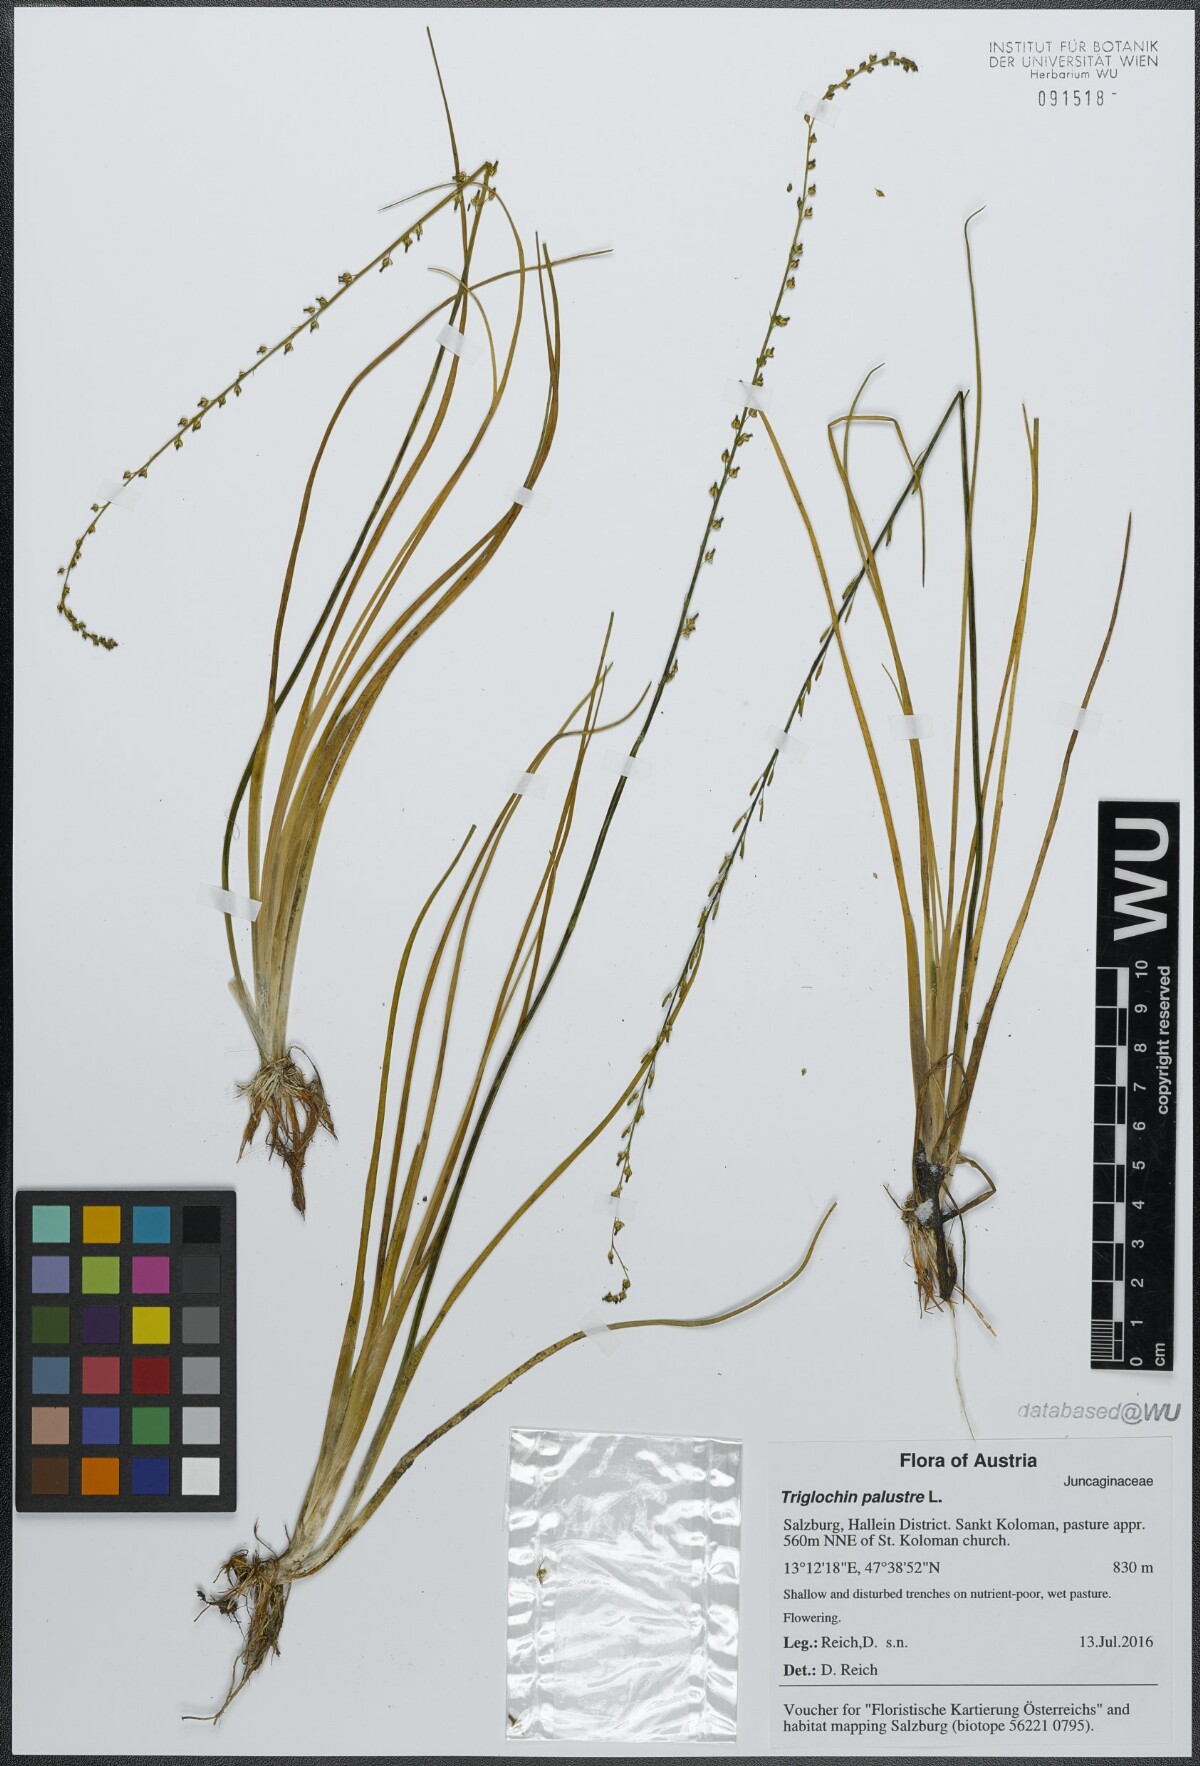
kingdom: Plantae
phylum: Tracheophyta
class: Liliopsida
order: Alismatales
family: Juncaginaceae
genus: Triglochin
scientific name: Triglochin palustris
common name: Marsh arrowgrass
